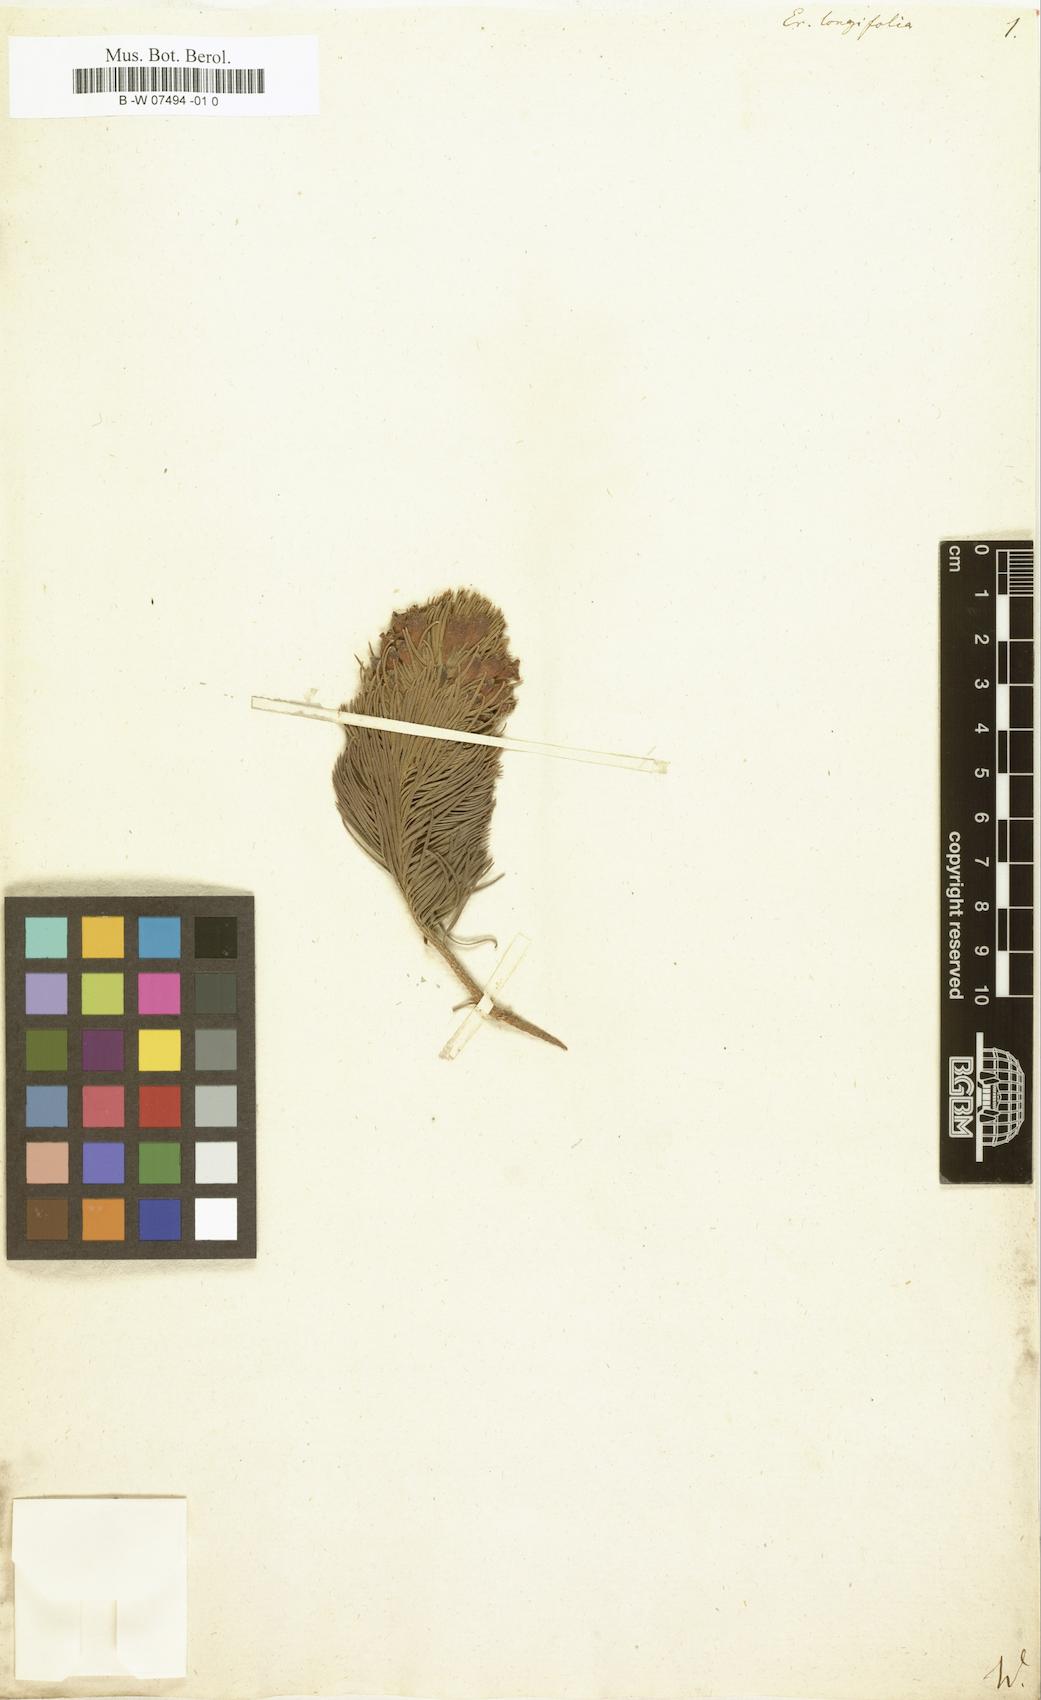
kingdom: Plantae
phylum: Tracheophyta
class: Magnoliopsida
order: Ericales
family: Ericaceae
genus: Erica
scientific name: Erica viscaria
